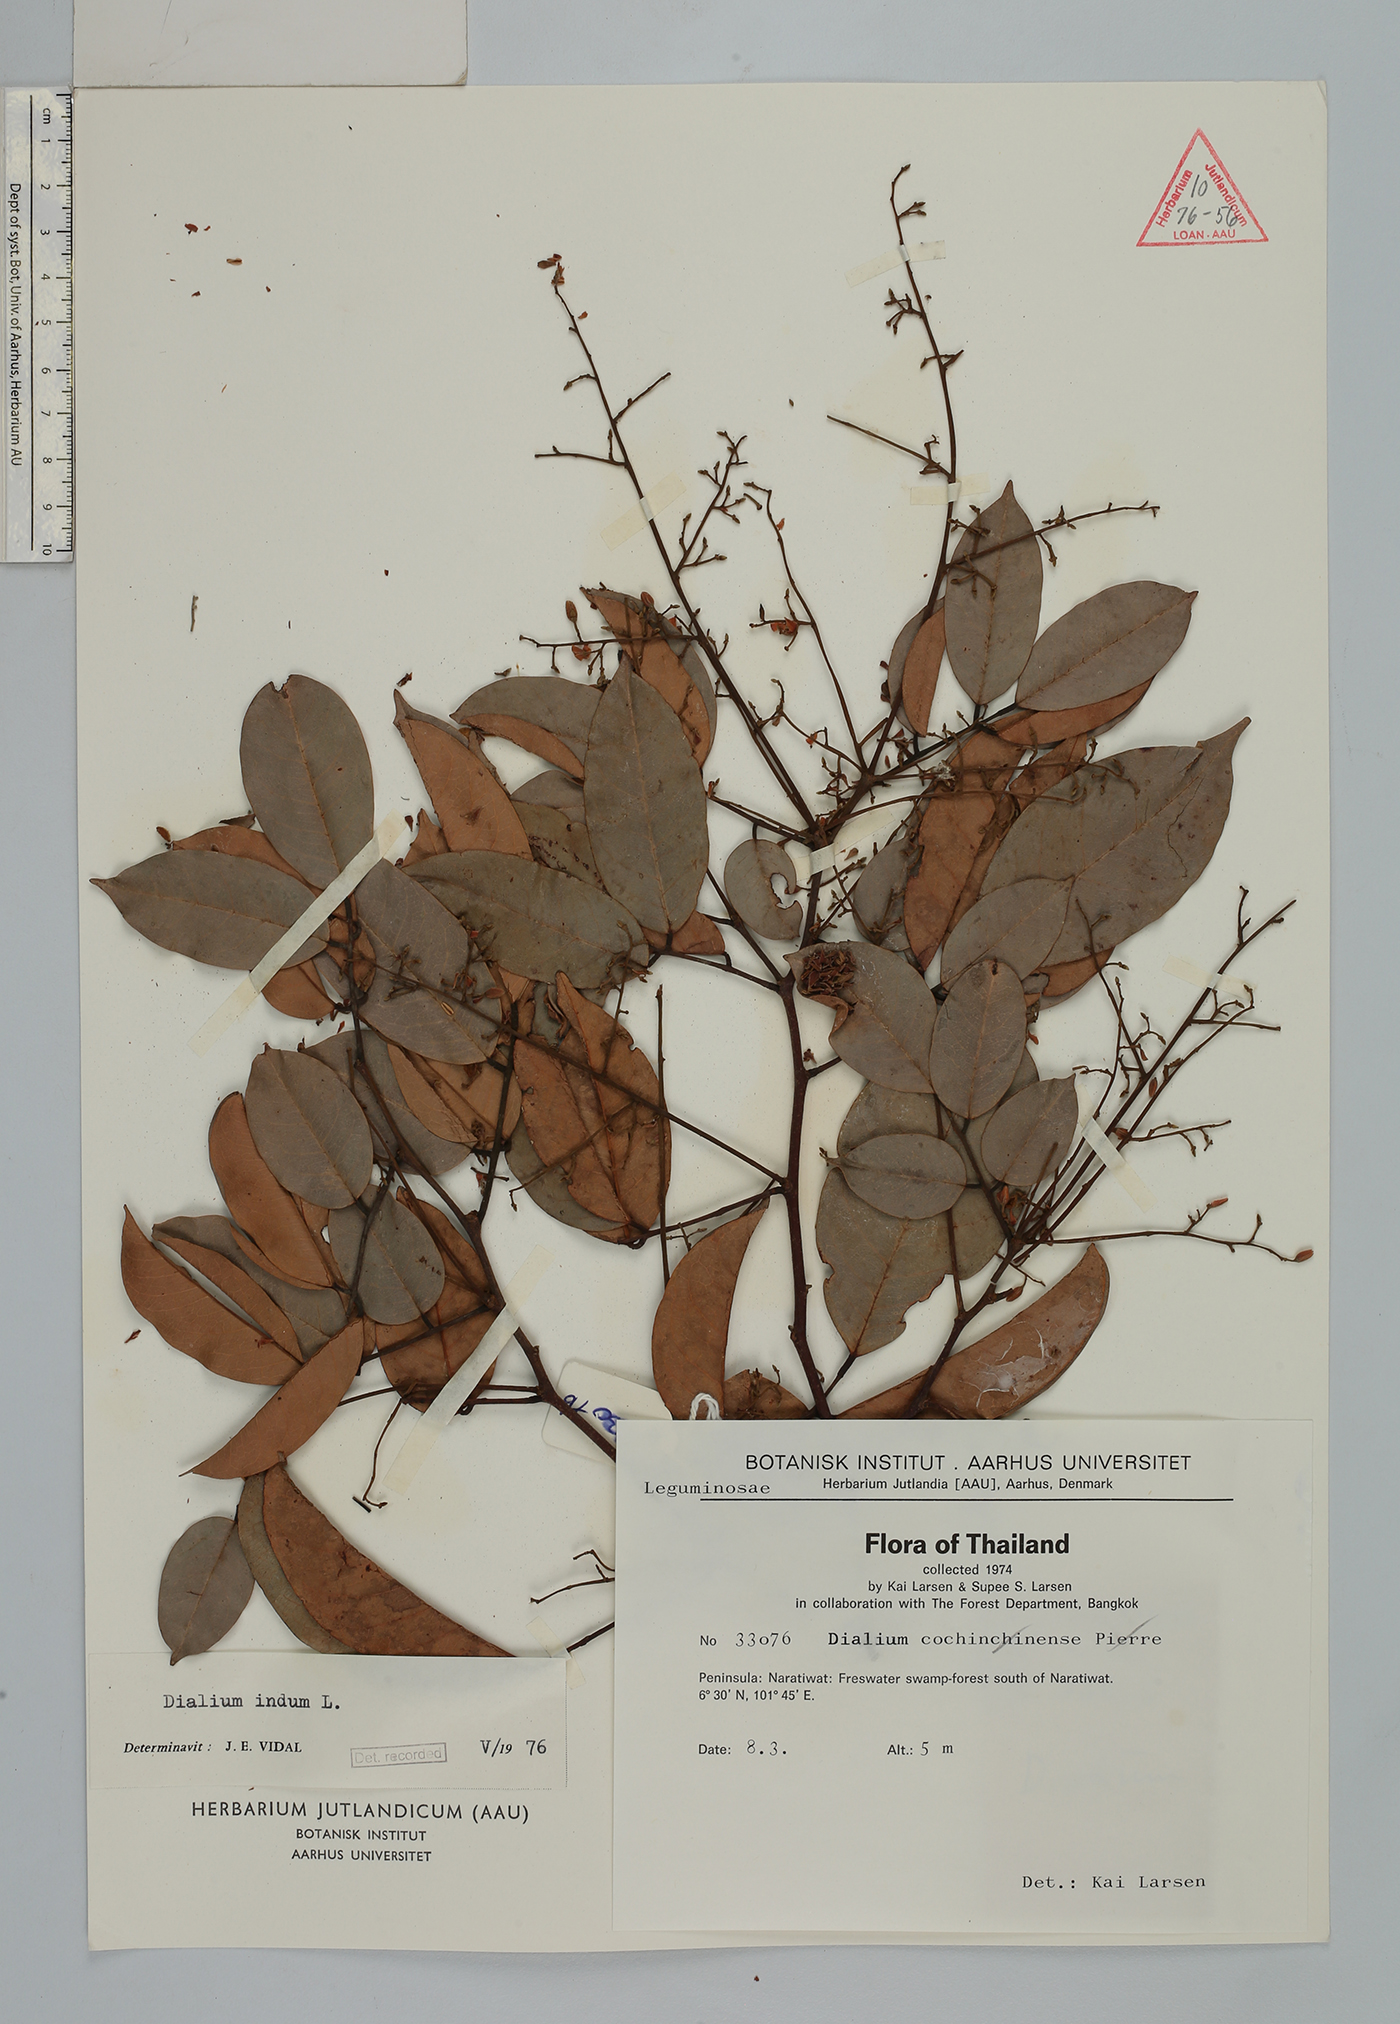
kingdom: Plantae
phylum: Tracheophyta
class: Magnoliopsida
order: Fabales
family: Fabaceae
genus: Dialium
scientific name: Dialium indum
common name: Tamarind-plum
